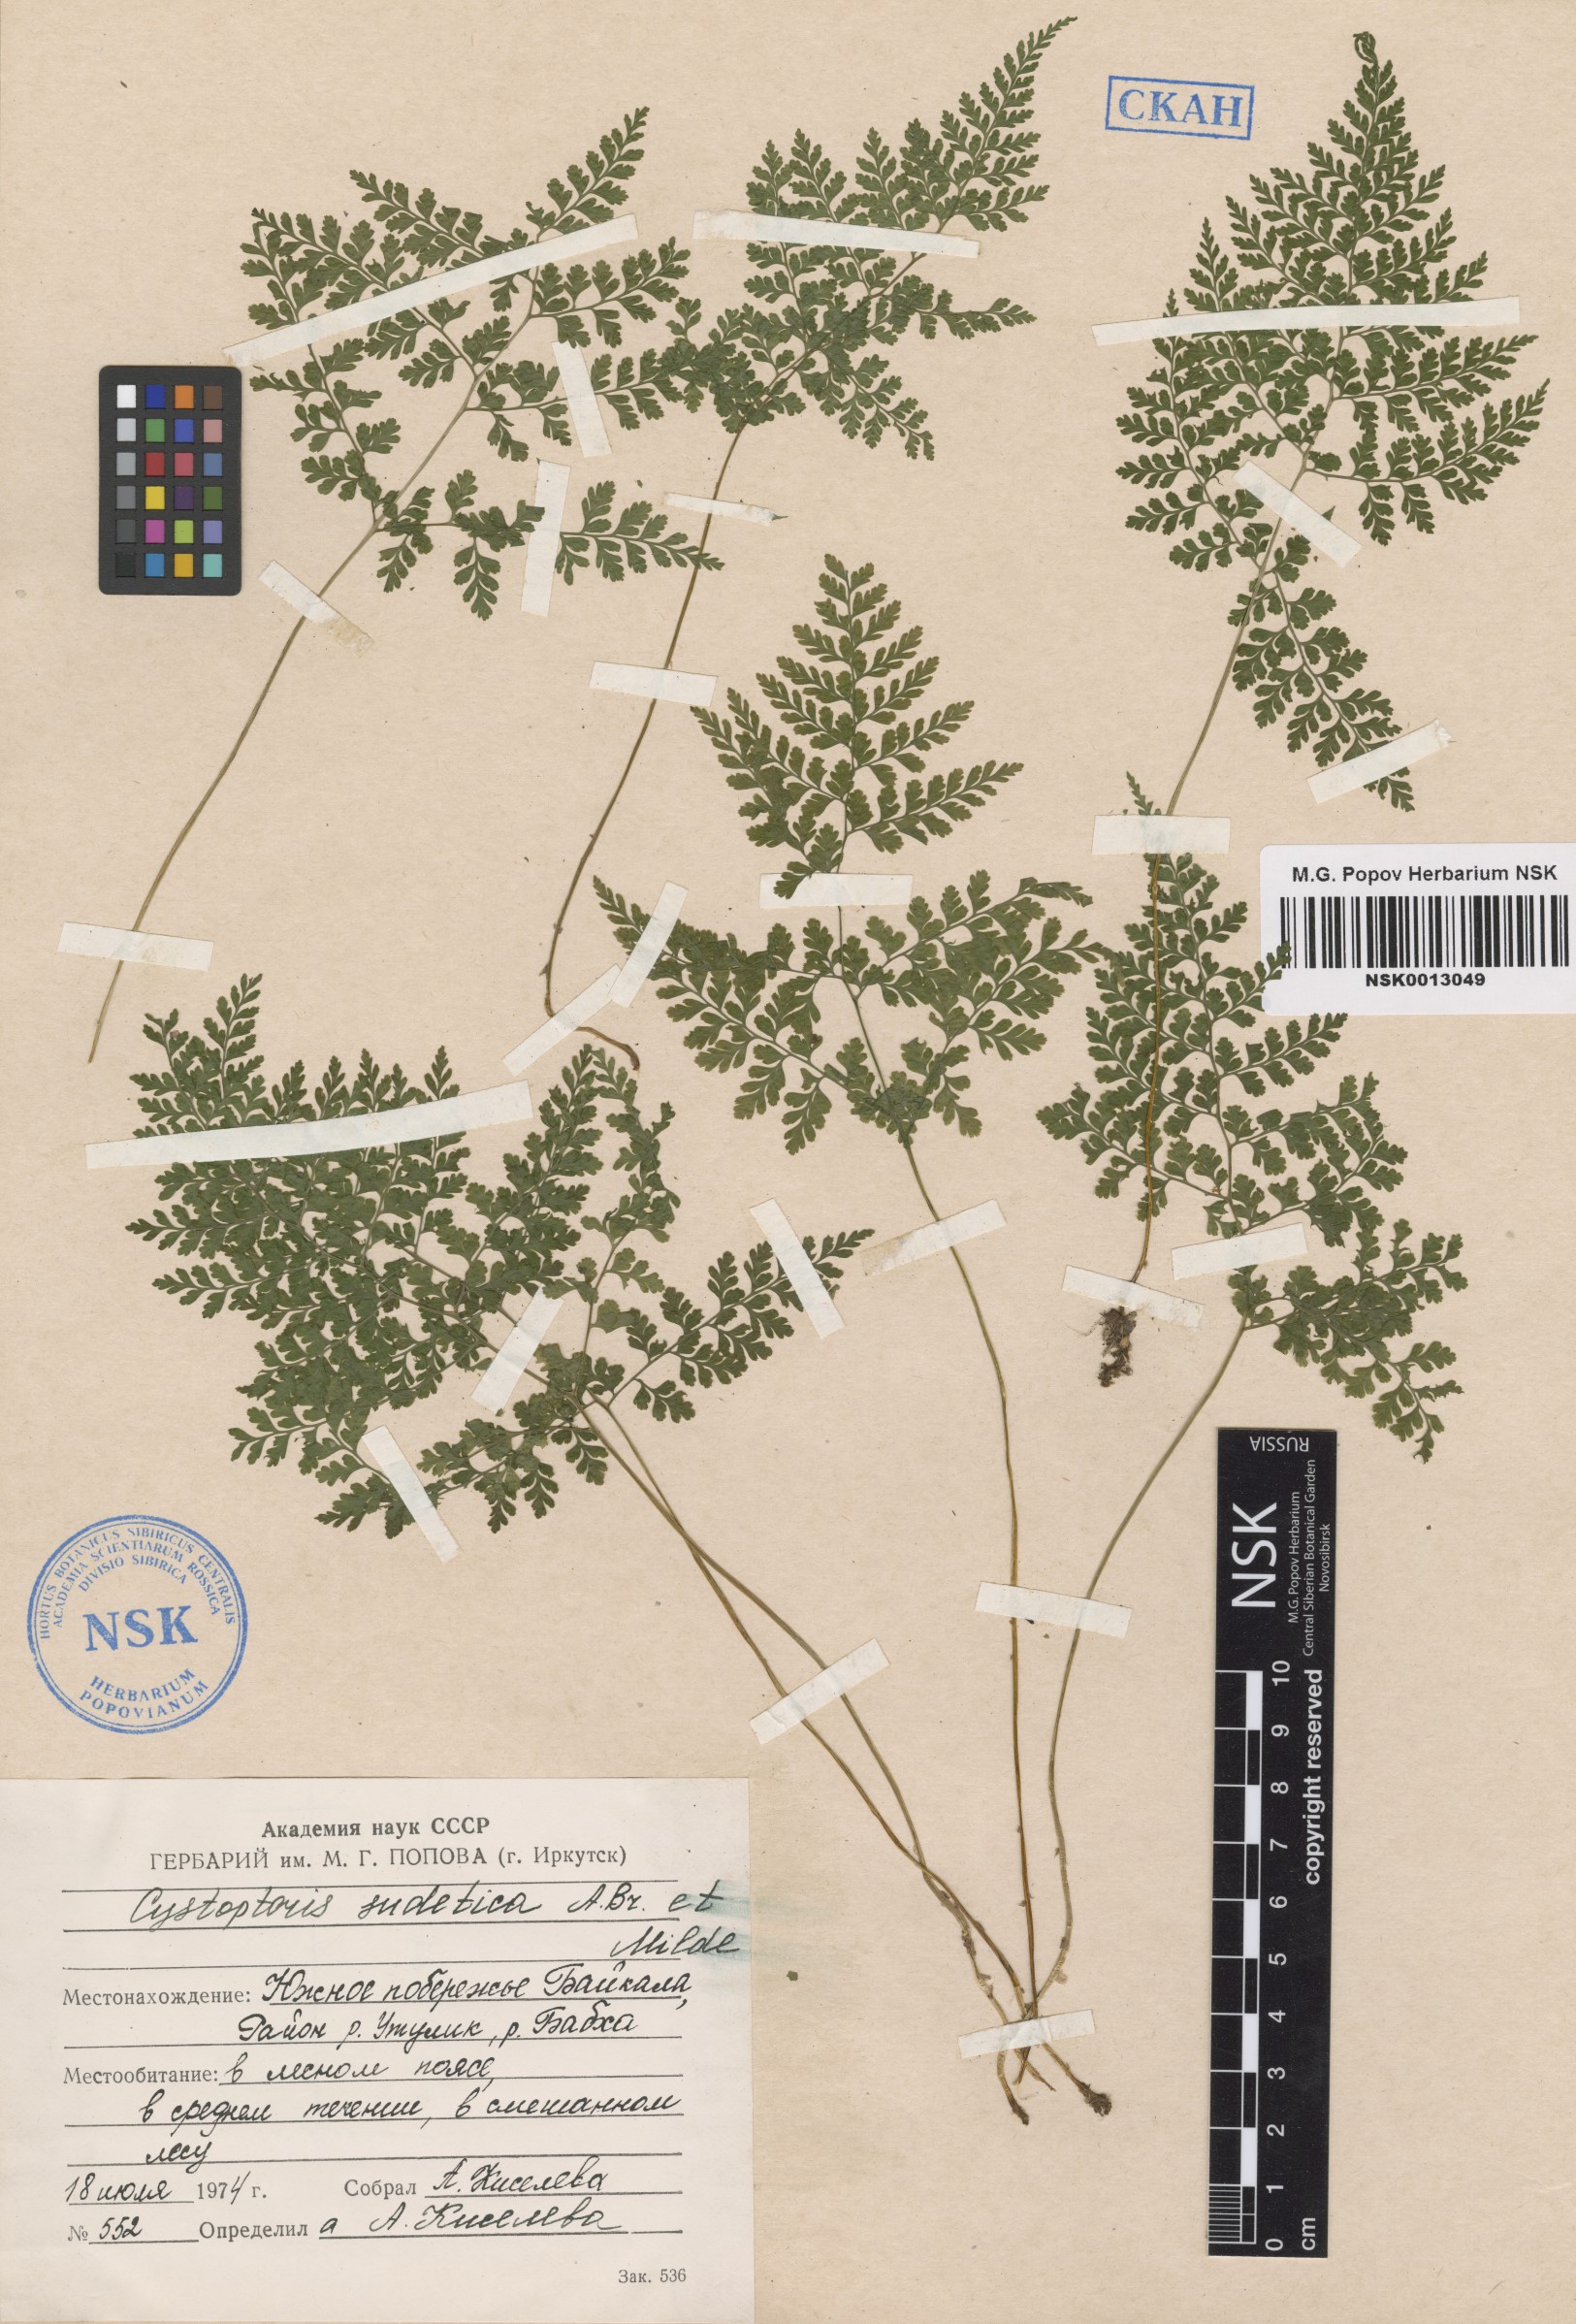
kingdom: Plantae
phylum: Tracheophyta
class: Polypodiopsida
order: Polypodiales
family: Cystopteridaceae
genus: Cystopteris
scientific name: Cystopteris sudetica
